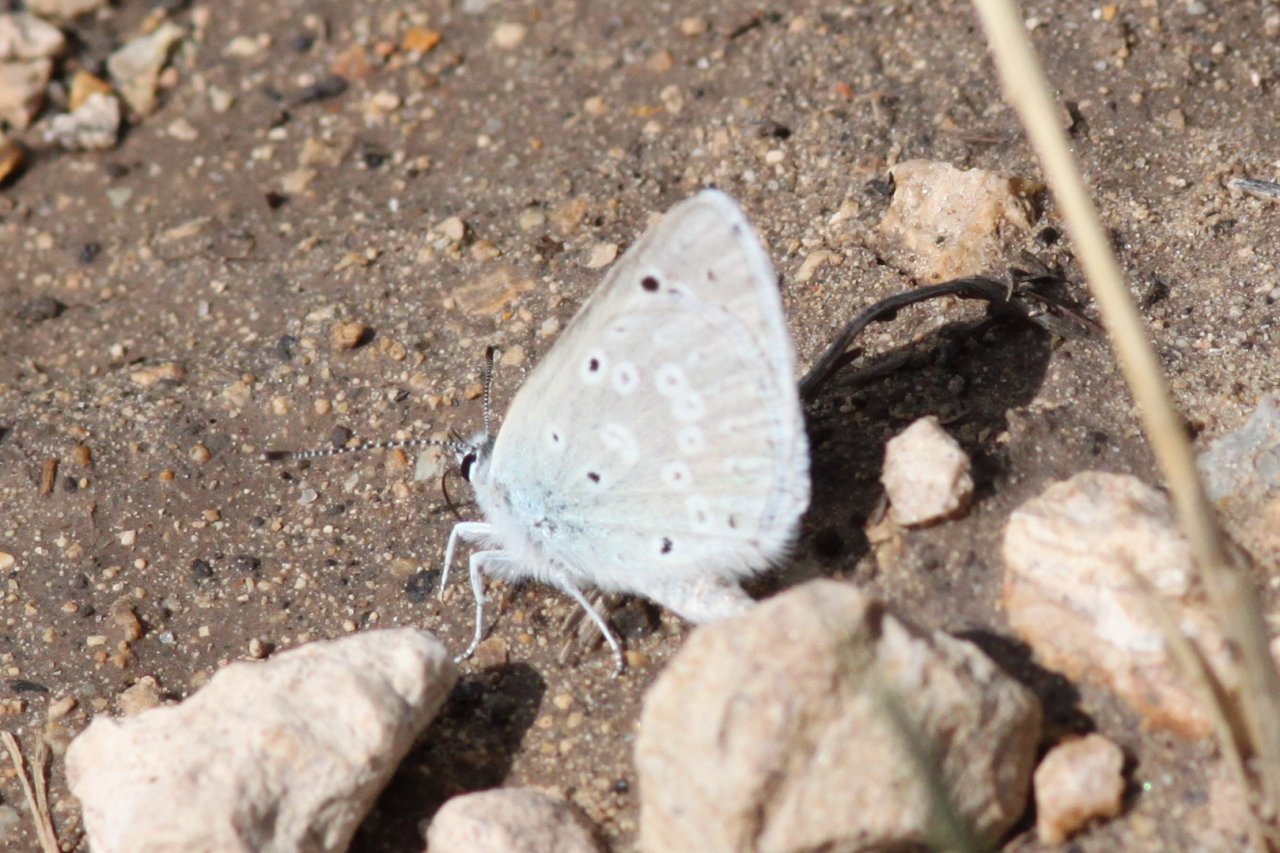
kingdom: Animalia
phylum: Arthropoda
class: Insecta
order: Lepidoptera
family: Lycaenidae
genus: Icaricia
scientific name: Icaricia icarioides
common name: Boisduval's Blue
